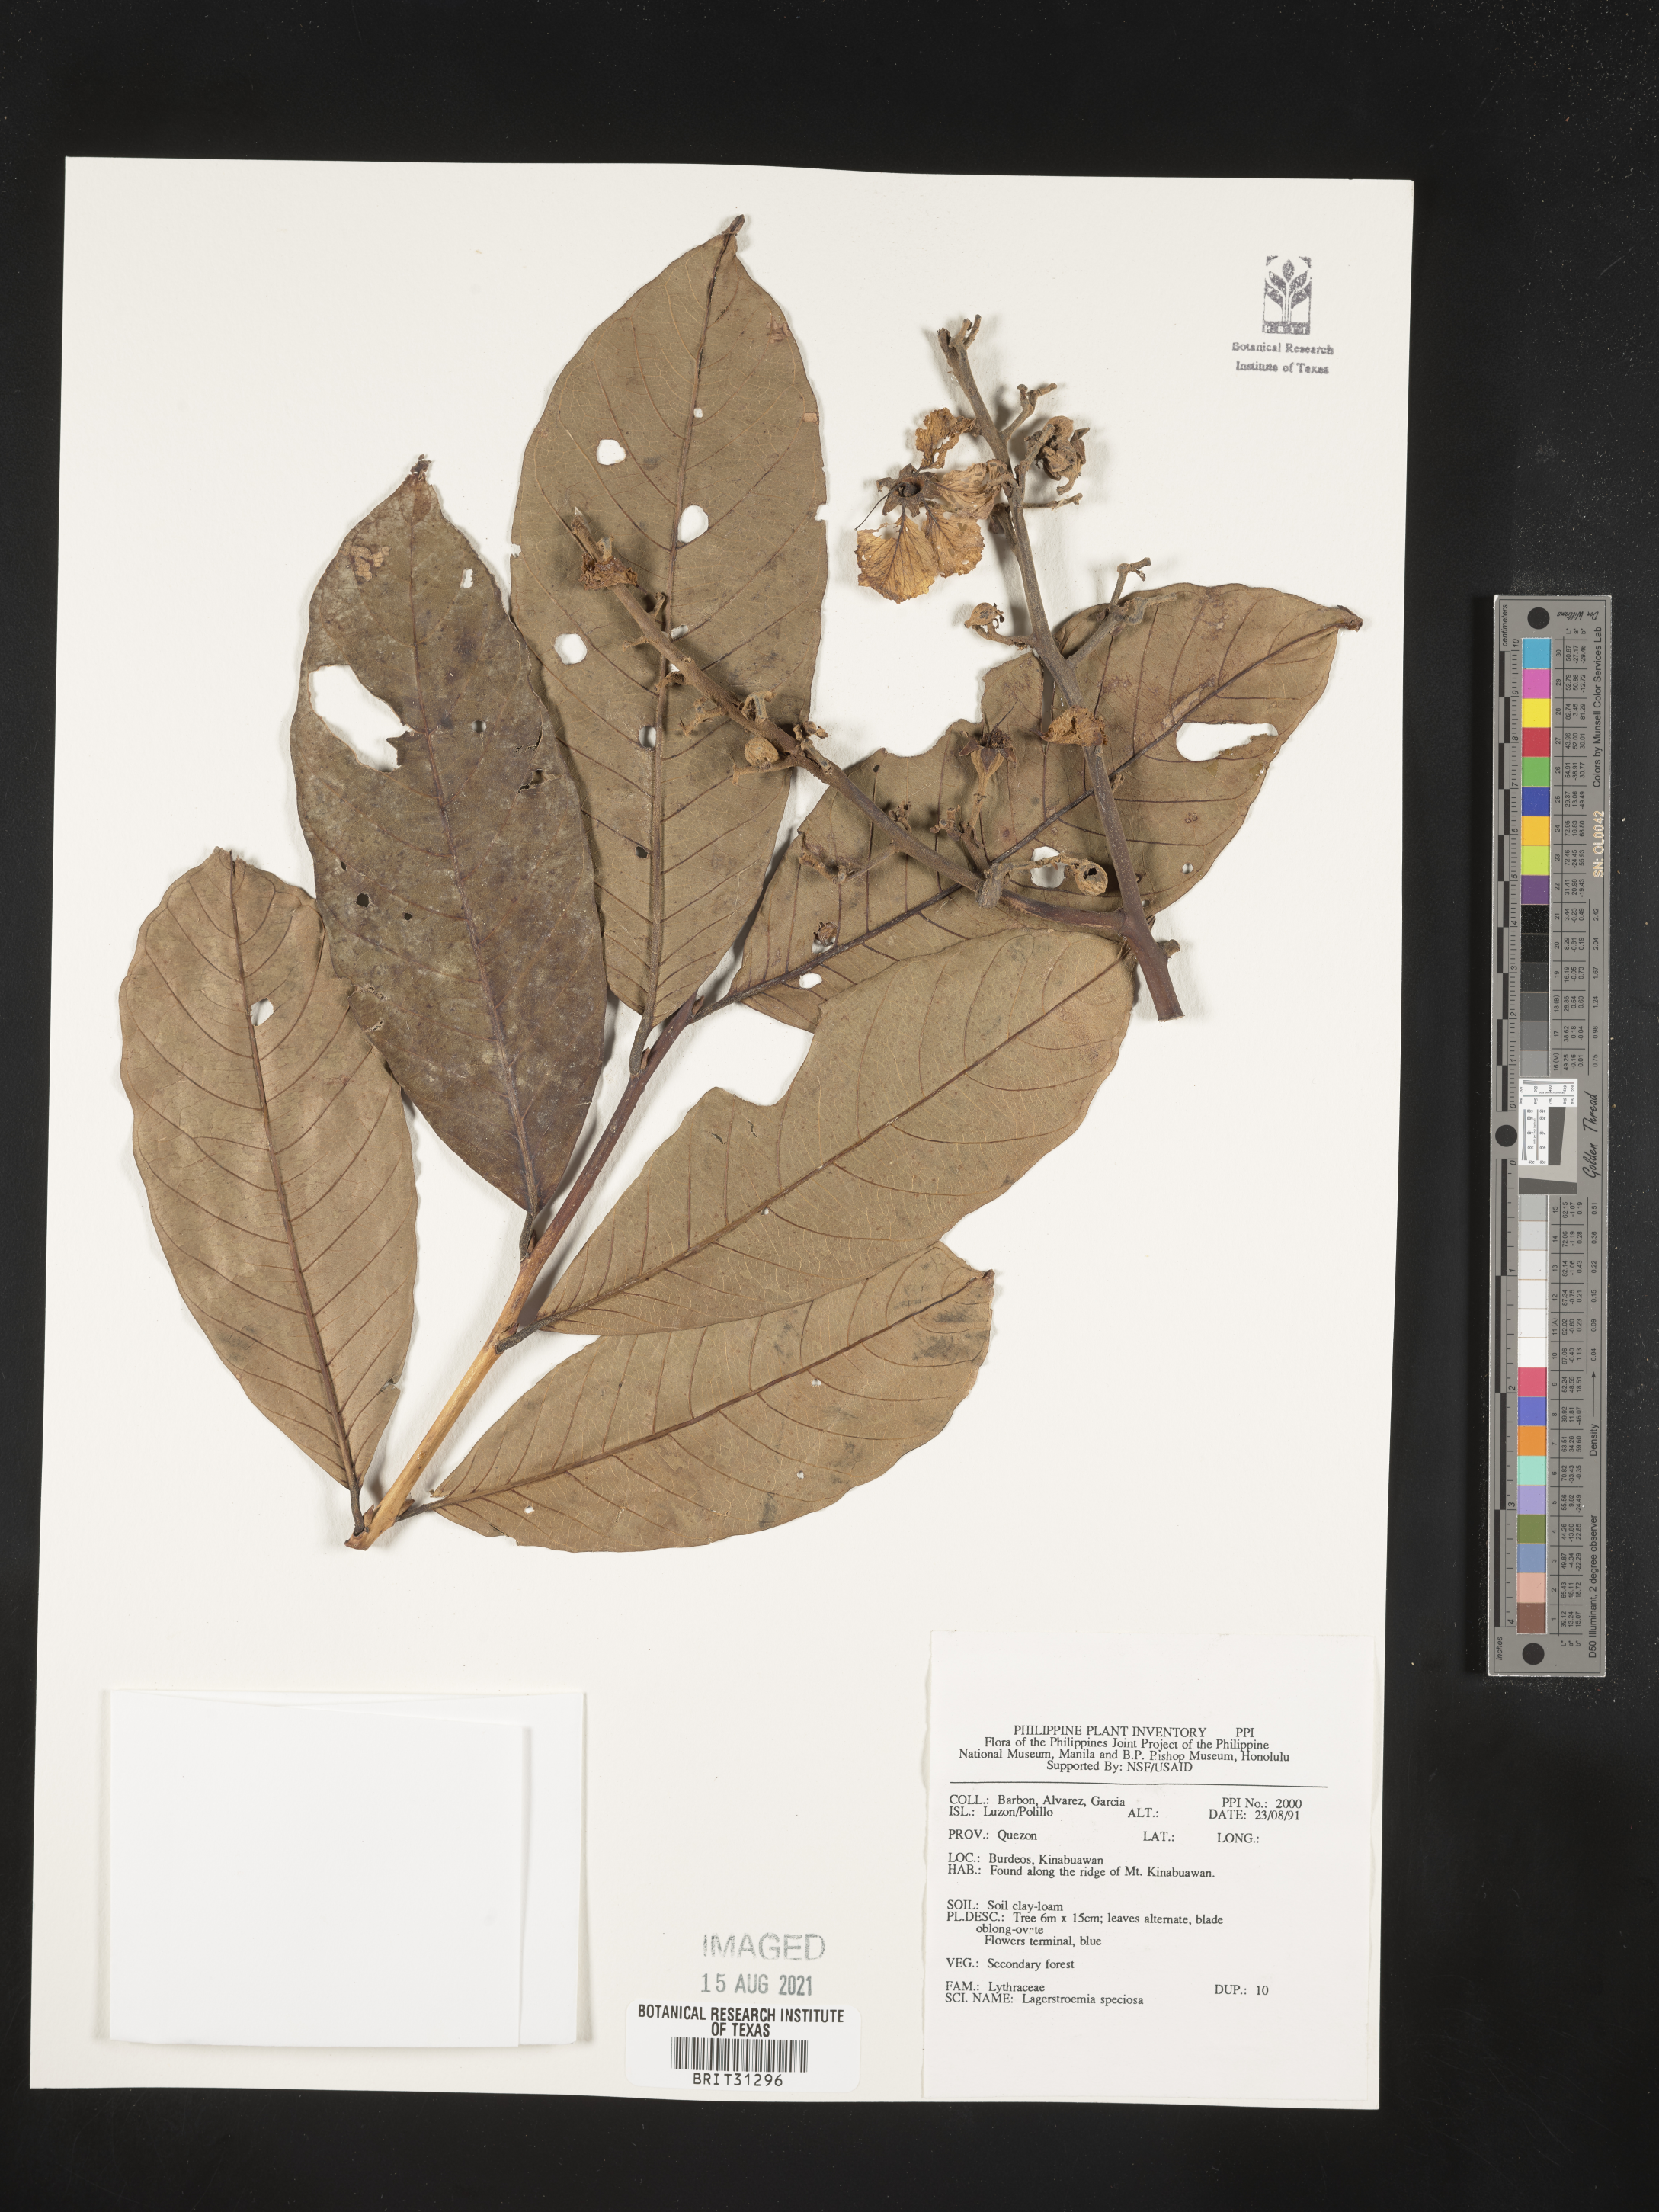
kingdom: Plantae
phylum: Tracheophyta
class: Magnoliopsida
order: Myrtales
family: Lythraceae
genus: Lagerstroemia
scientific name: Lagerstroemia speciosa
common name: Queen's crape-myrtle
